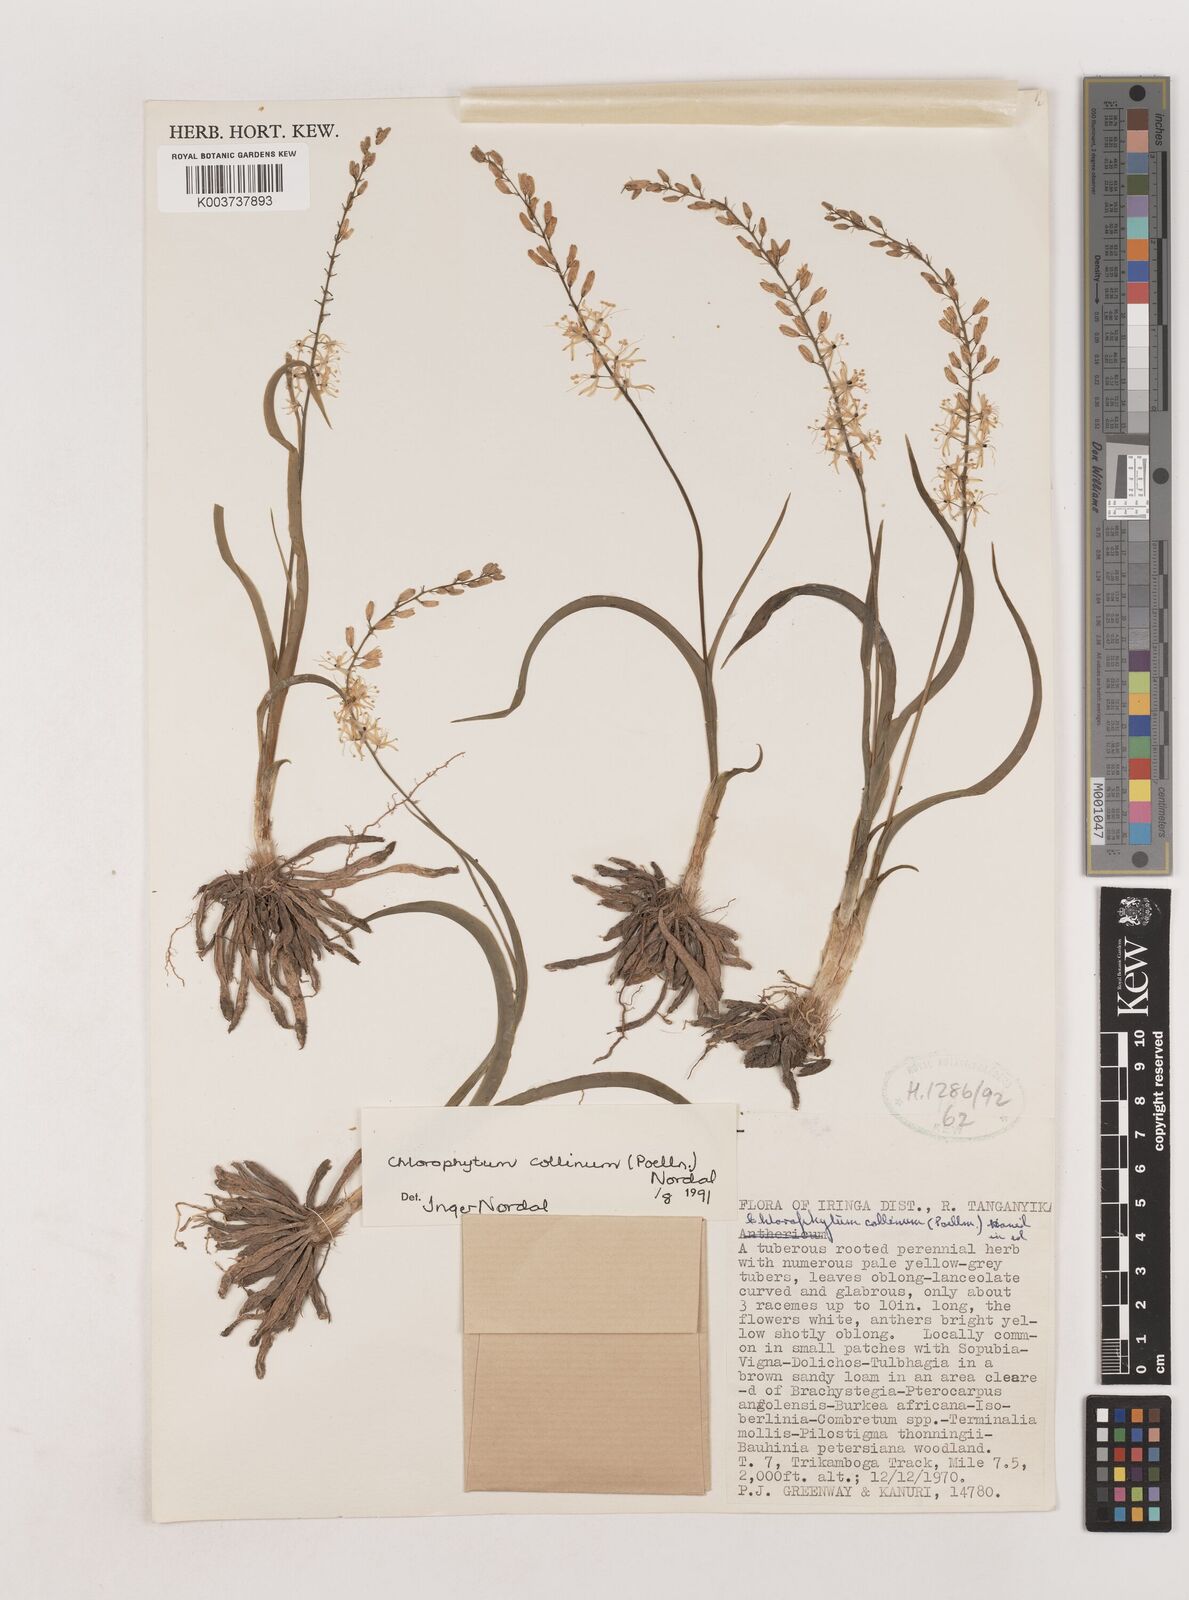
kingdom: Plantae
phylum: Tracheophyta
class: Liliopsida
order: Asparagales
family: Asparagaceae
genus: Chlorophytum
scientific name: Chlorophytum collinum
